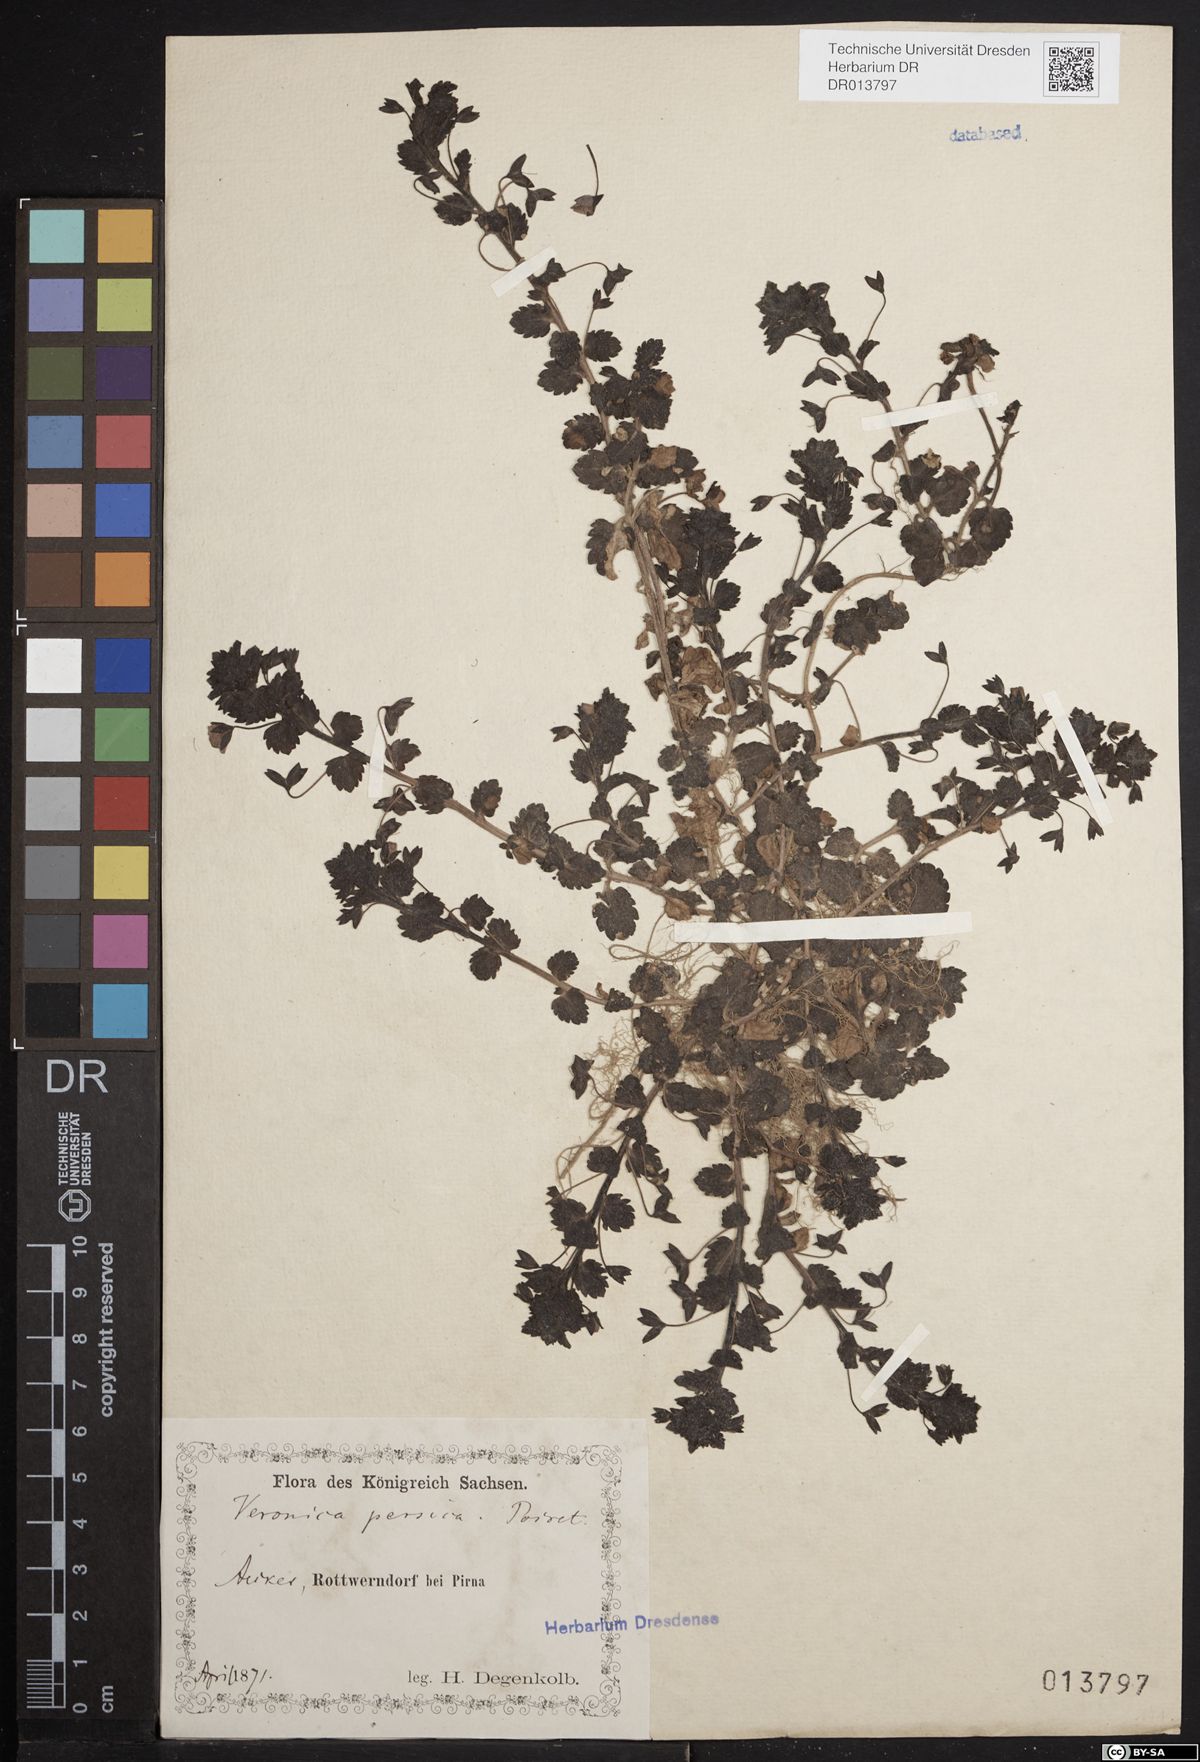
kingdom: Plantae
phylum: Tracheophyta
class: Magnoliopsida
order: Lamiales
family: Plantaginaceae
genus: Veronica
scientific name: Veronica persica
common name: Common field-speedwell
